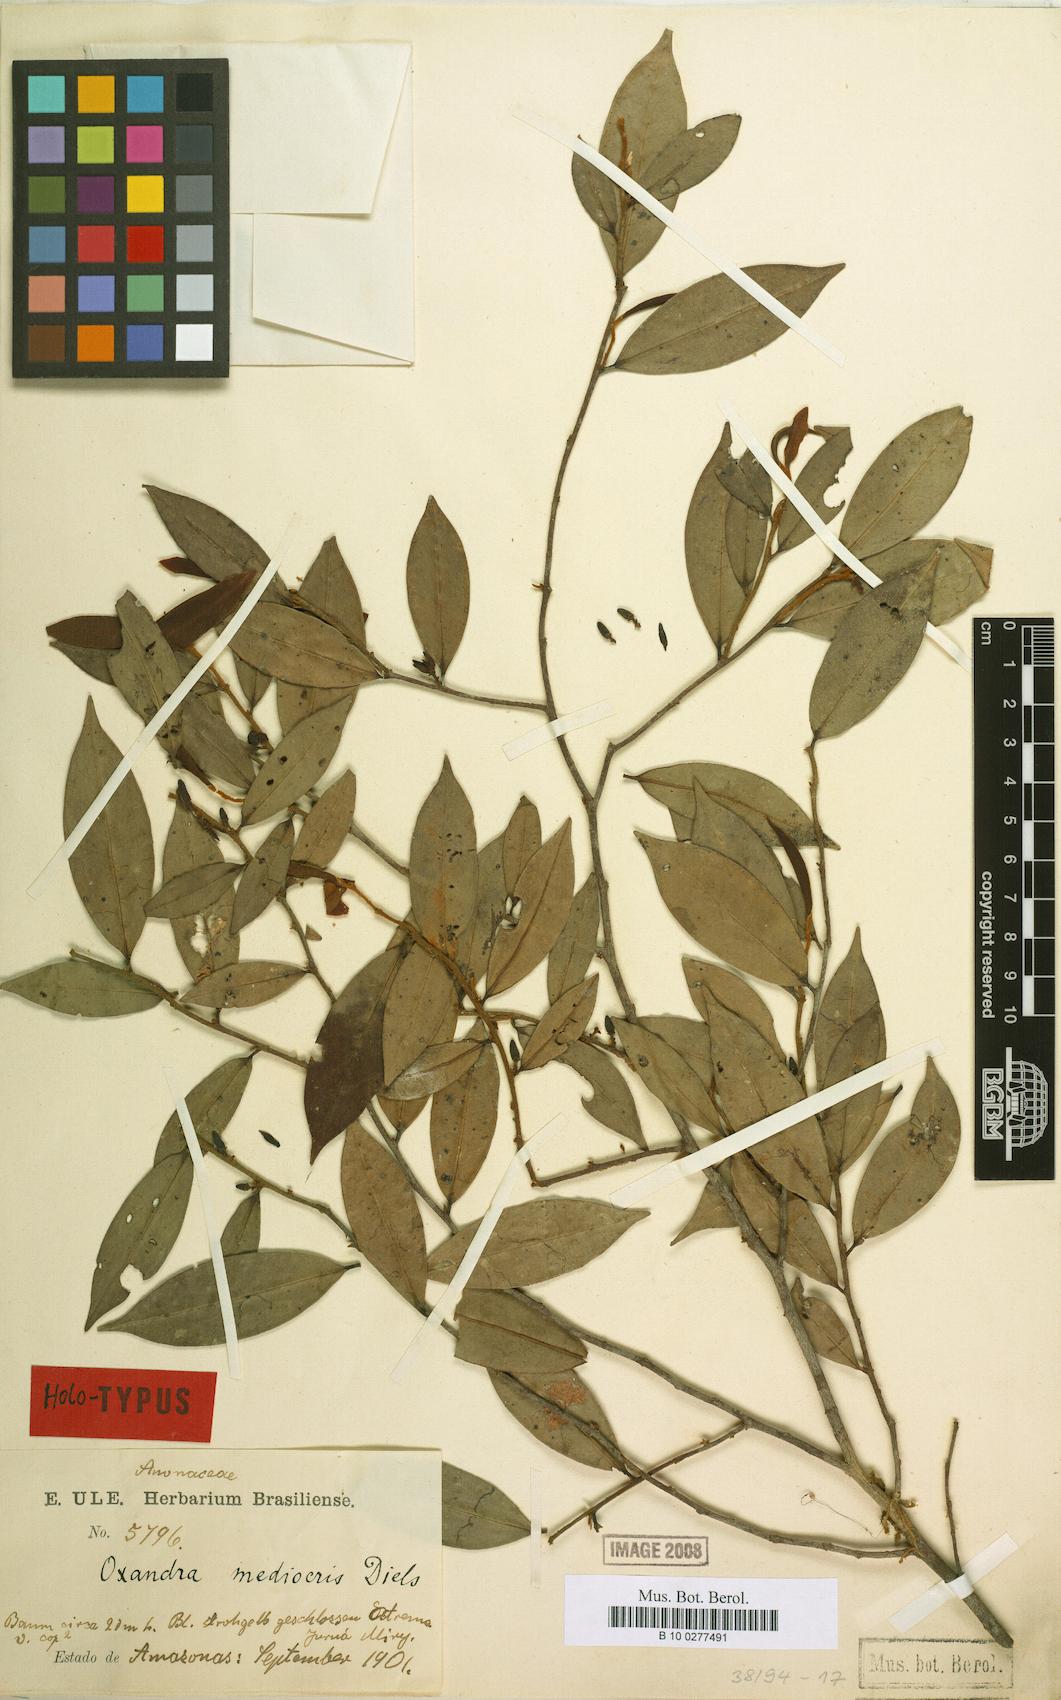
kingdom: Plantae
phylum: Tracheophyta
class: Magnoliopsida
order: Magnoliales
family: Annonaceae
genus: Oxandra
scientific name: Oxandra mediocris
